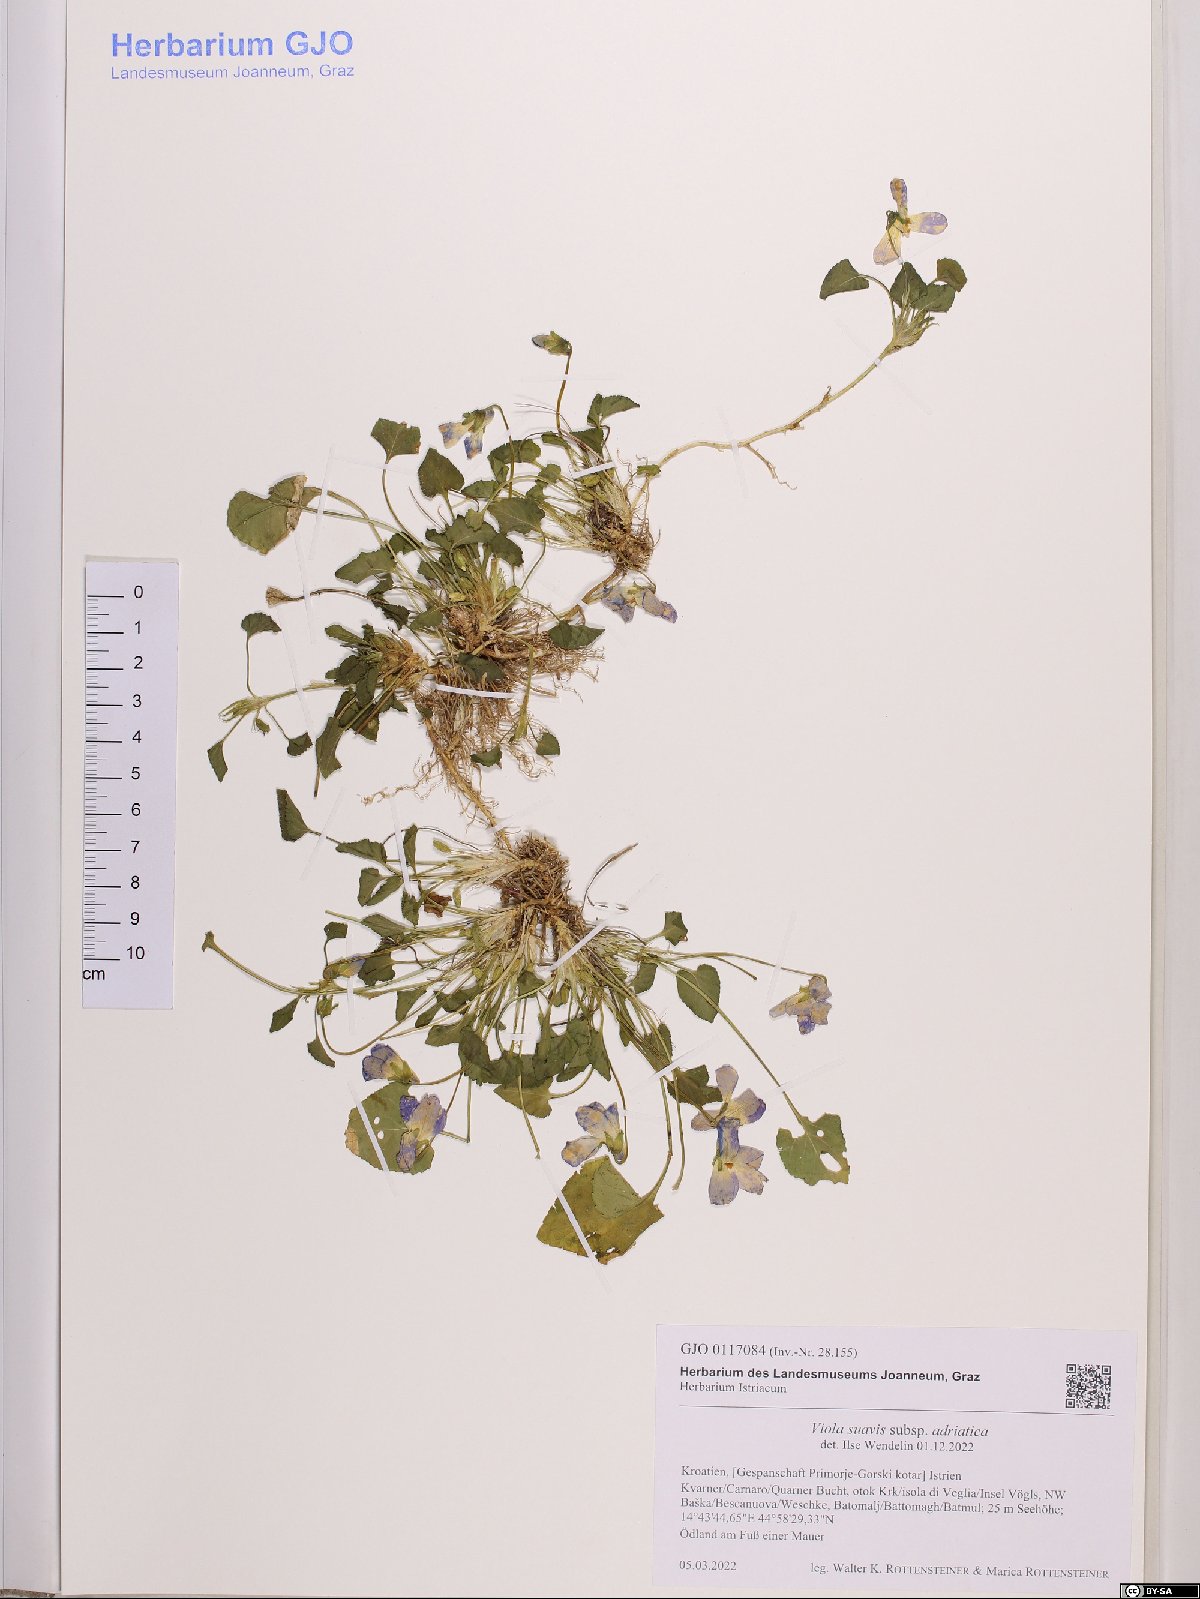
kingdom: Plantae
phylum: Tracheophyta
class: Magnoliopsida
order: Malpighiales
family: Violaceae
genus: Viola
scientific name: Viola suavis
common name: Russian violet
